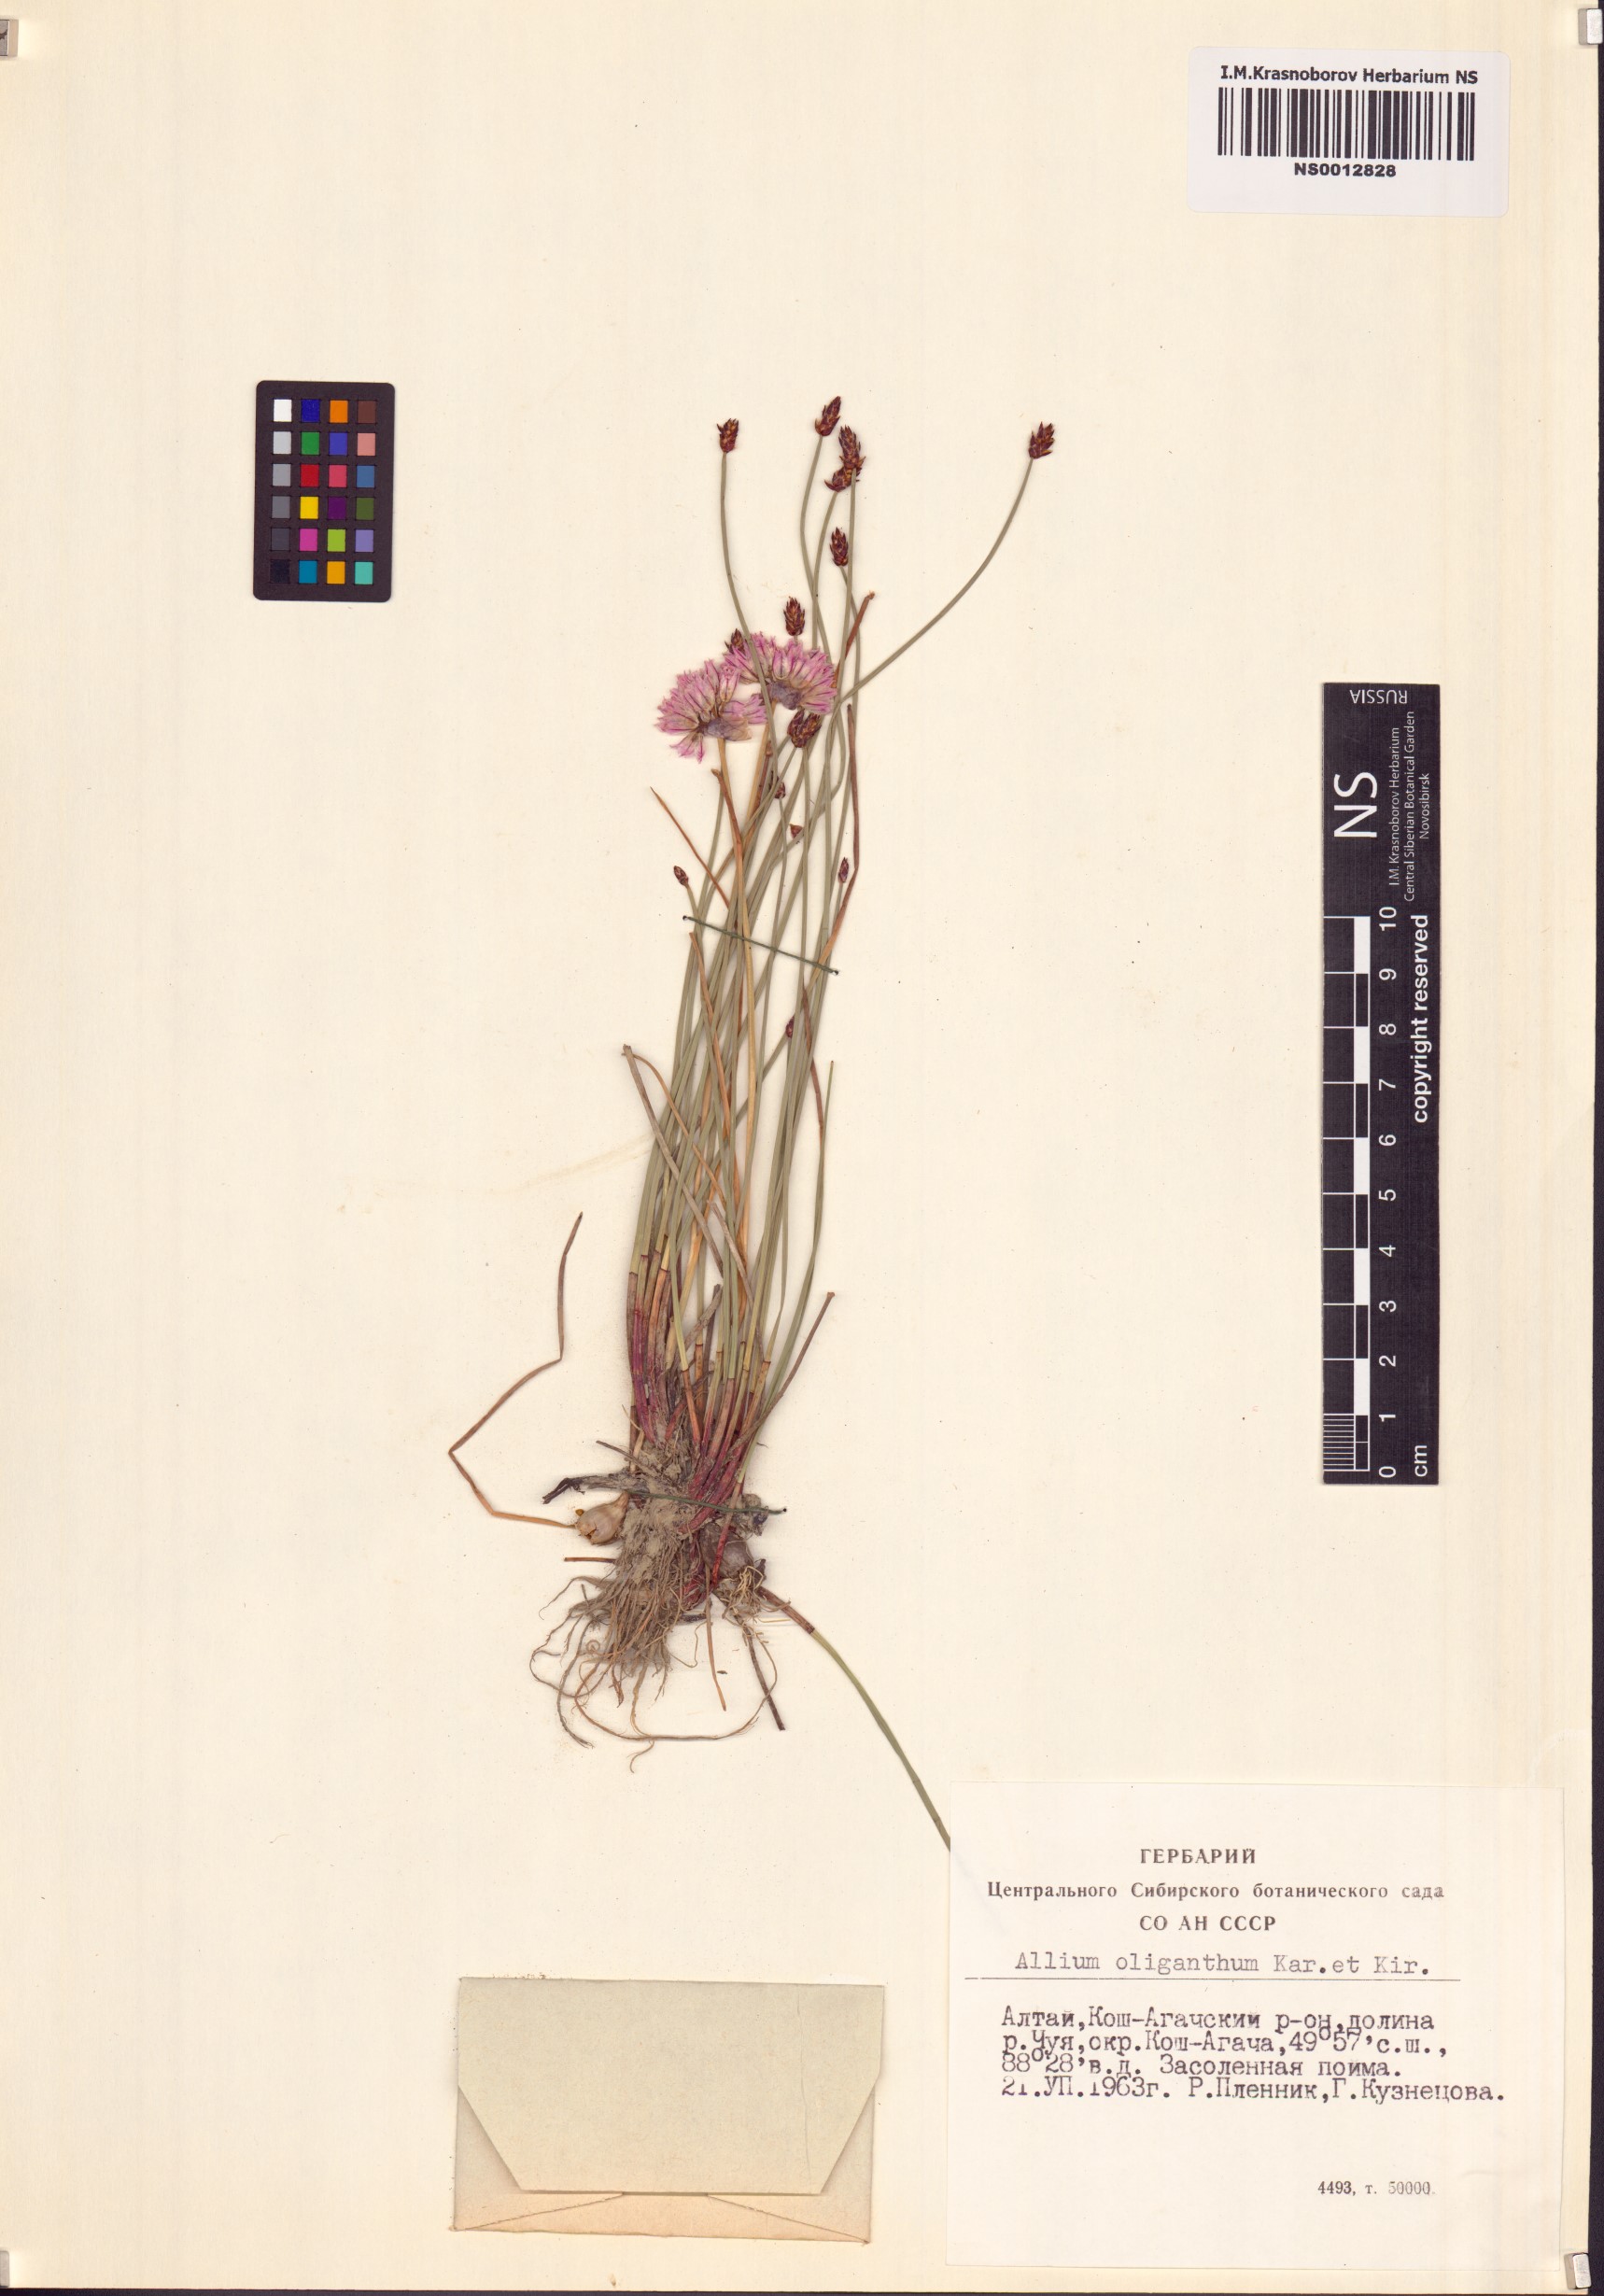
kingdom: Plantae
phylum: Tracheophyta
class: Liliopsida
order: Asparagales
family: Amaryllidaceae
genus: Allium
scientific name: Allium oliganthum
